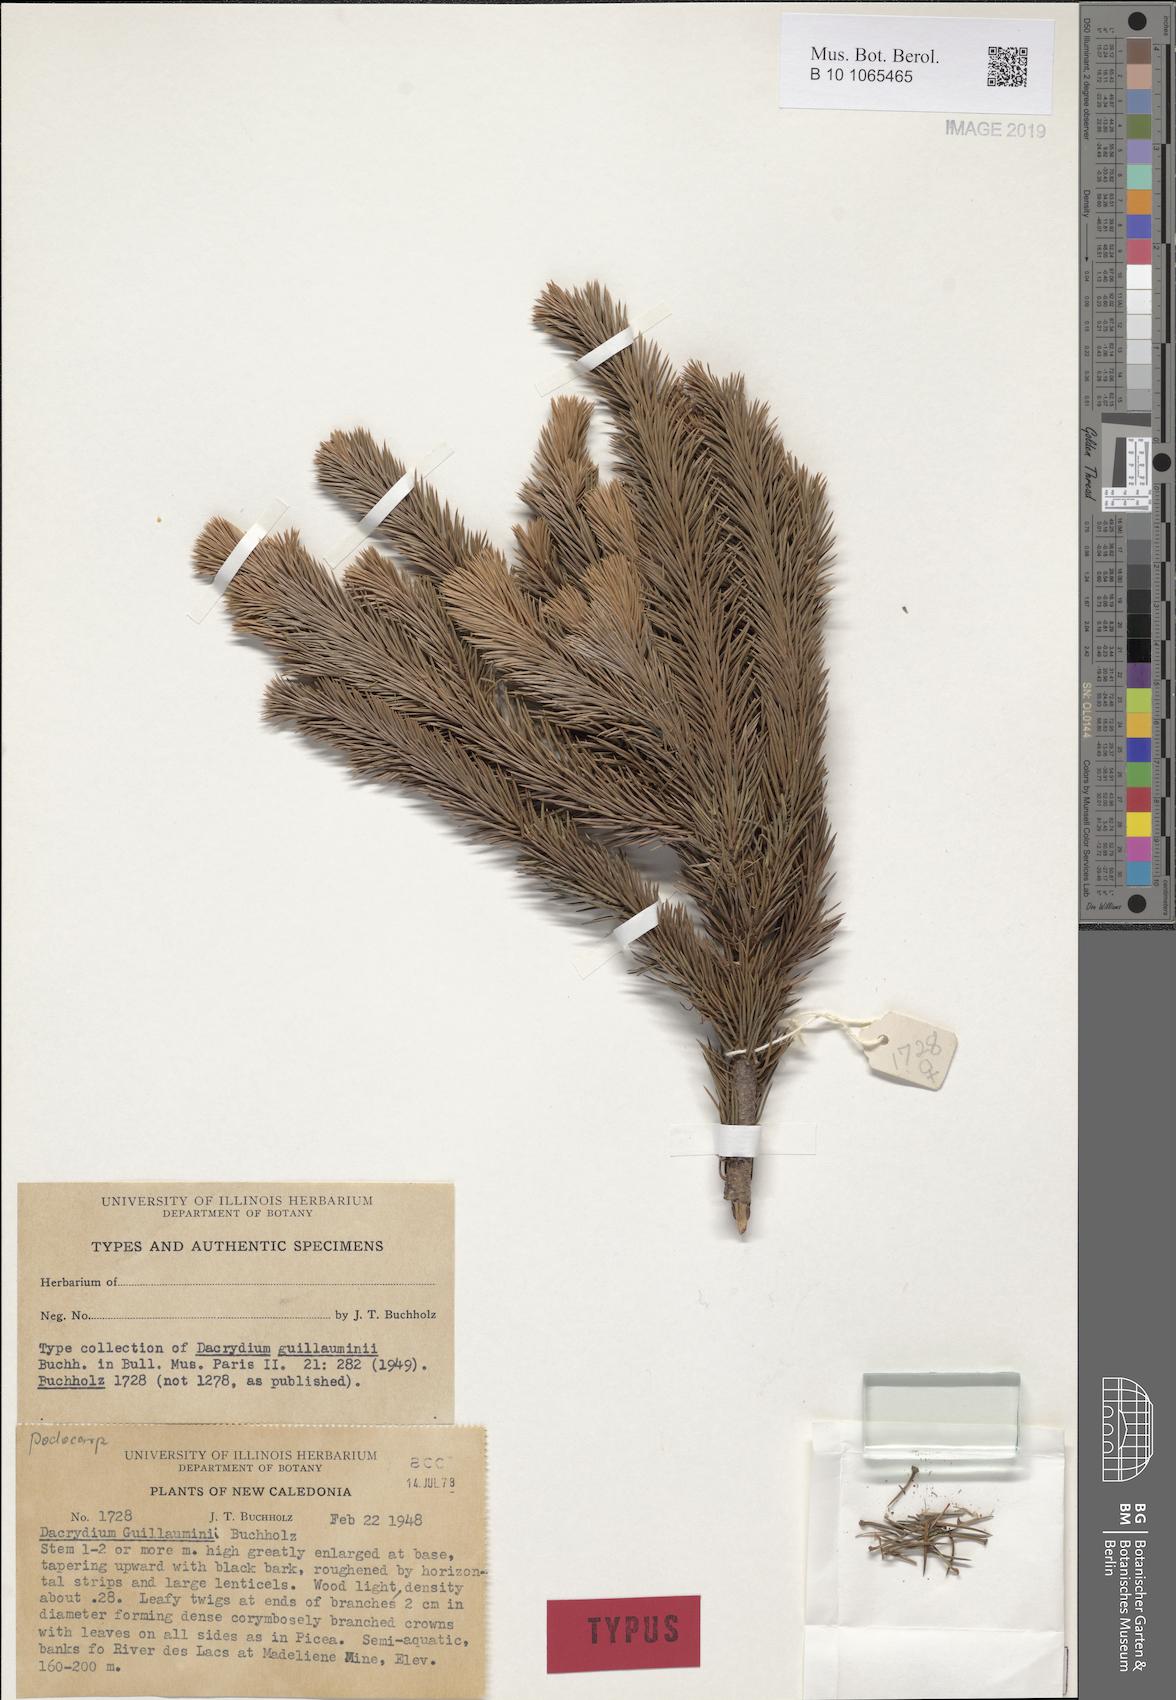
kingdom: Plantae
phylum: Tracheophyta
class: Pinopsida
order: Pinales
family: Podocarpaceae
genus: Dacrydium
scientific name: Dacrydium guillauminii
